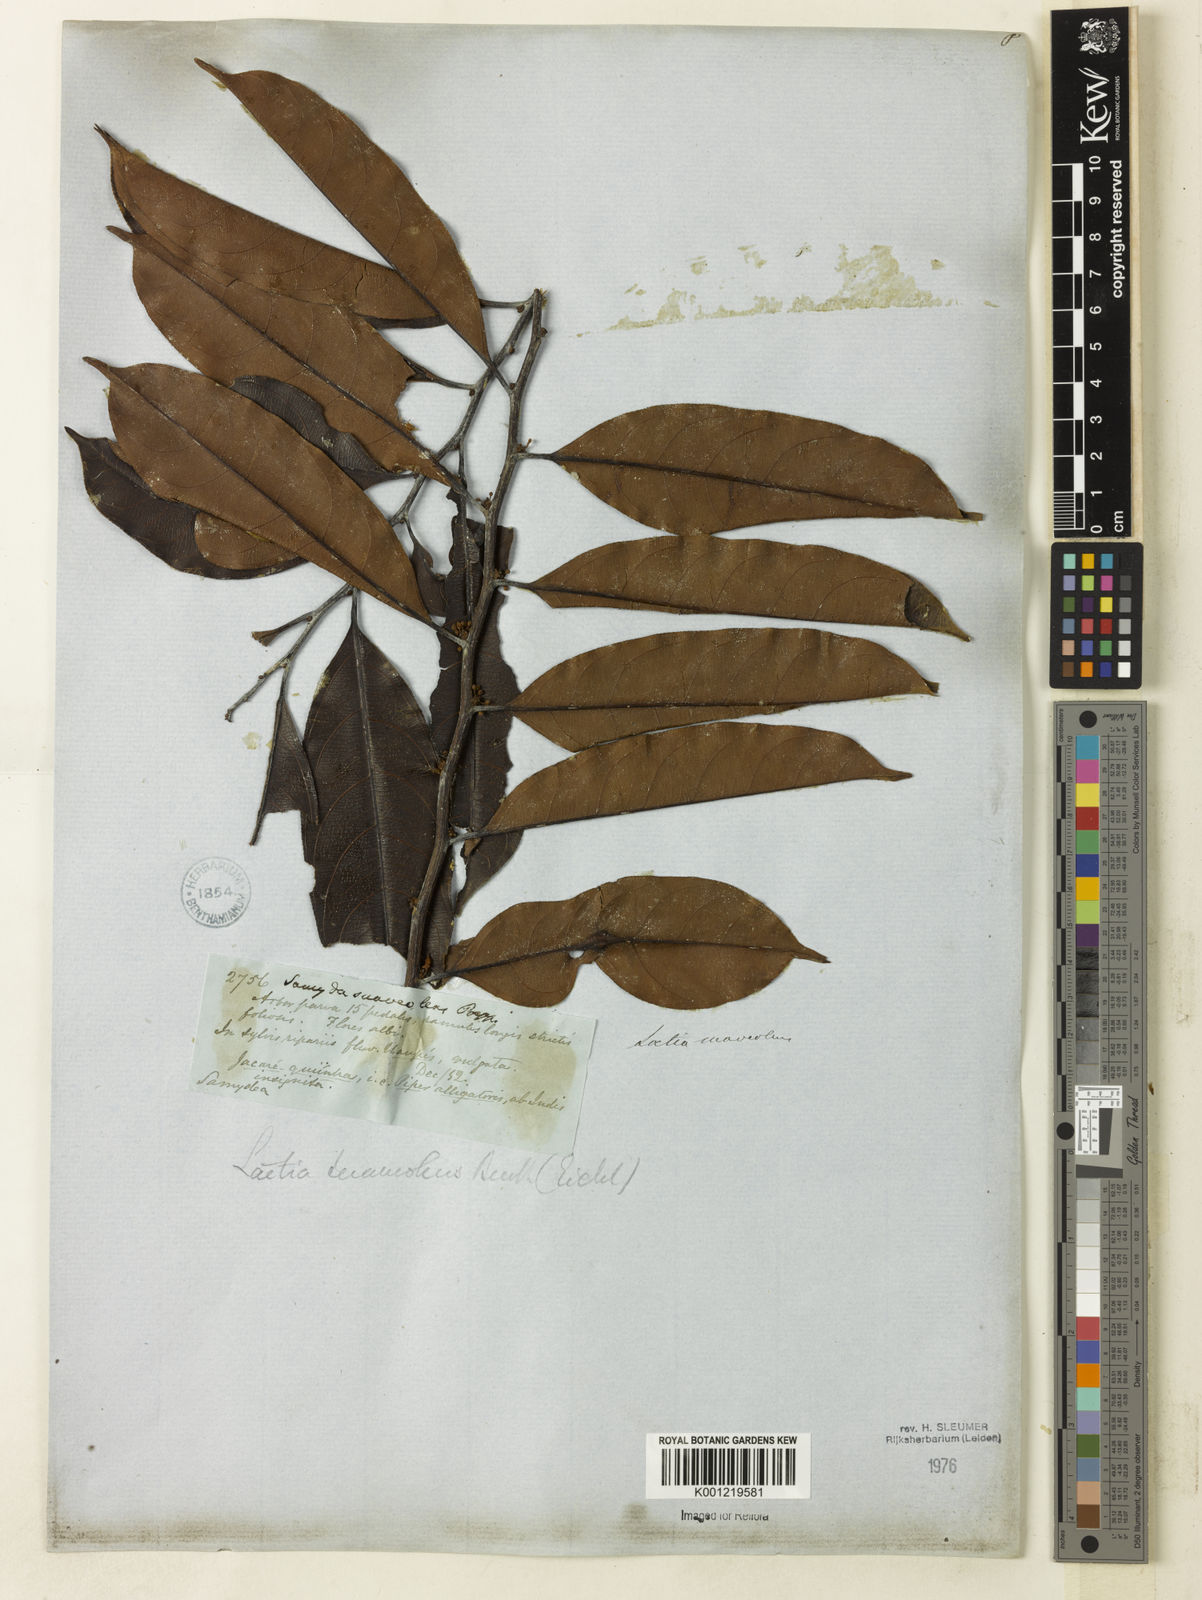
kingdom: Plantae
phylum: Tracheophyta
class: Magnoliopsida
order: Malpighiales
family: Salicaceae
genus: Casearia
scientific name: Casearia suaveolens
